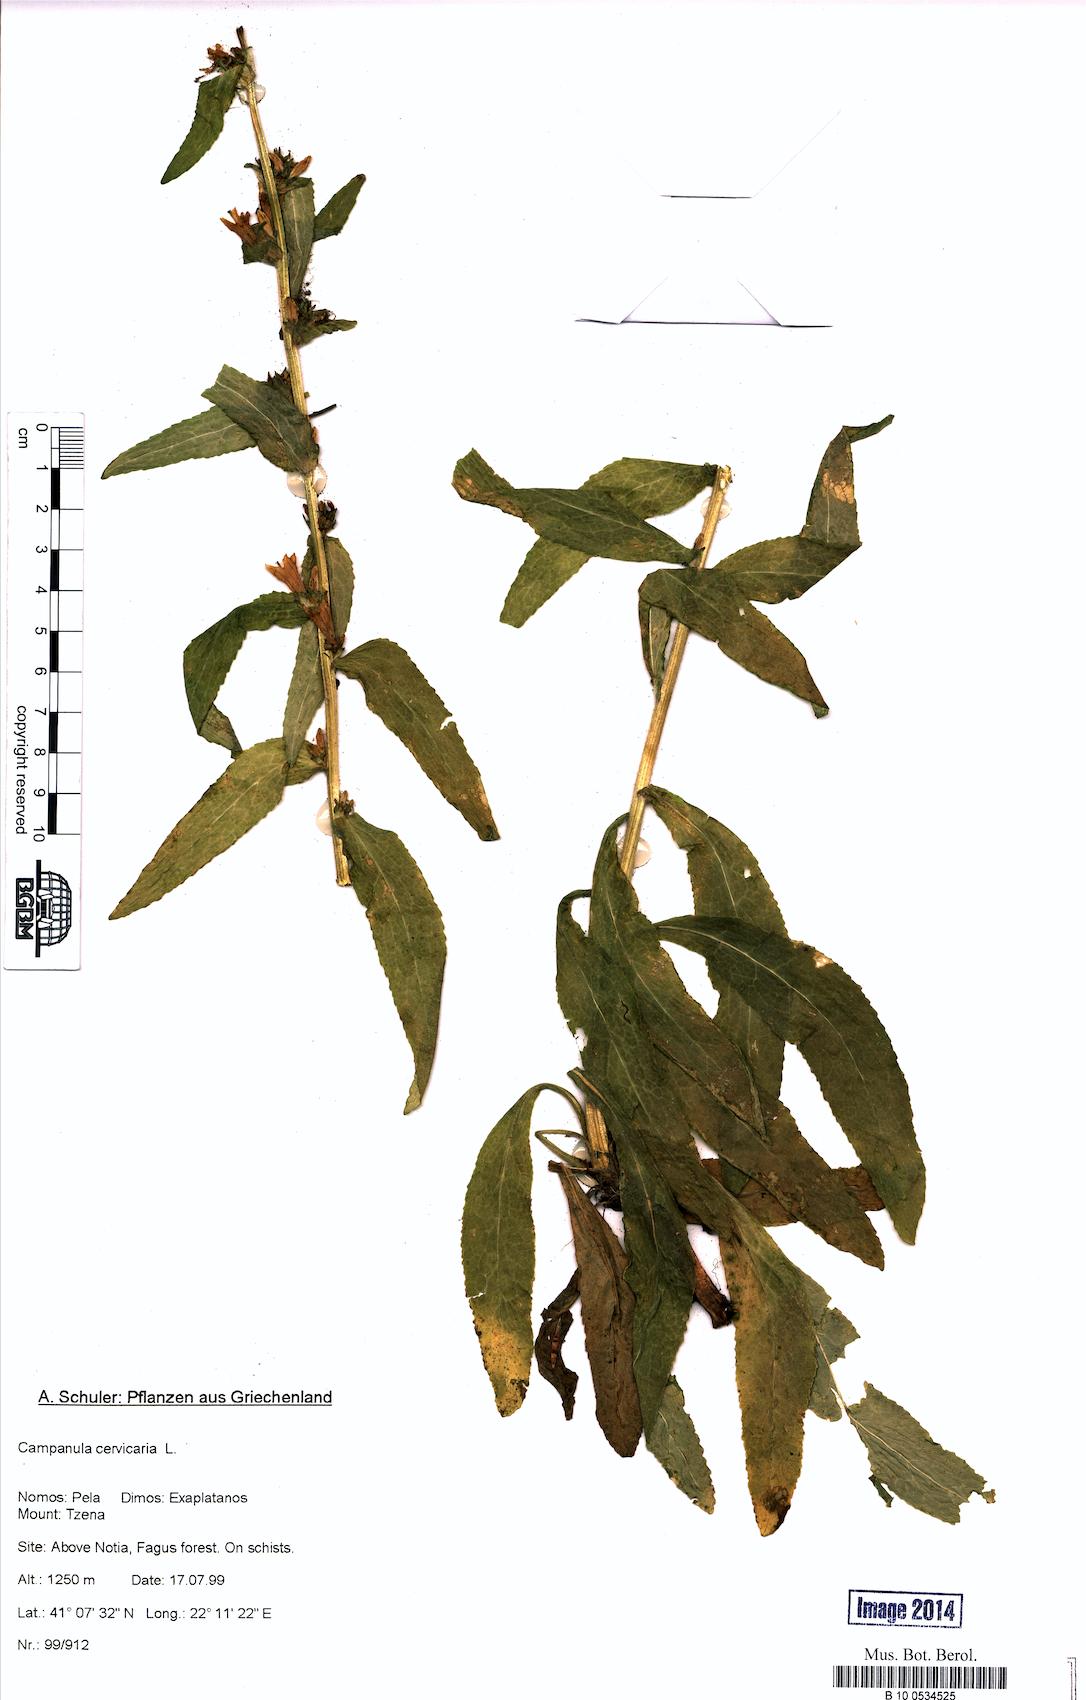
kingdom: Plantae
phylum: Tracheophyta
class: Magnoliopsida
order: Asterales
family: Campanulaceae
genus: Campanula
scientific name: Campanula cervicaria
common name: Bristly bellflower
